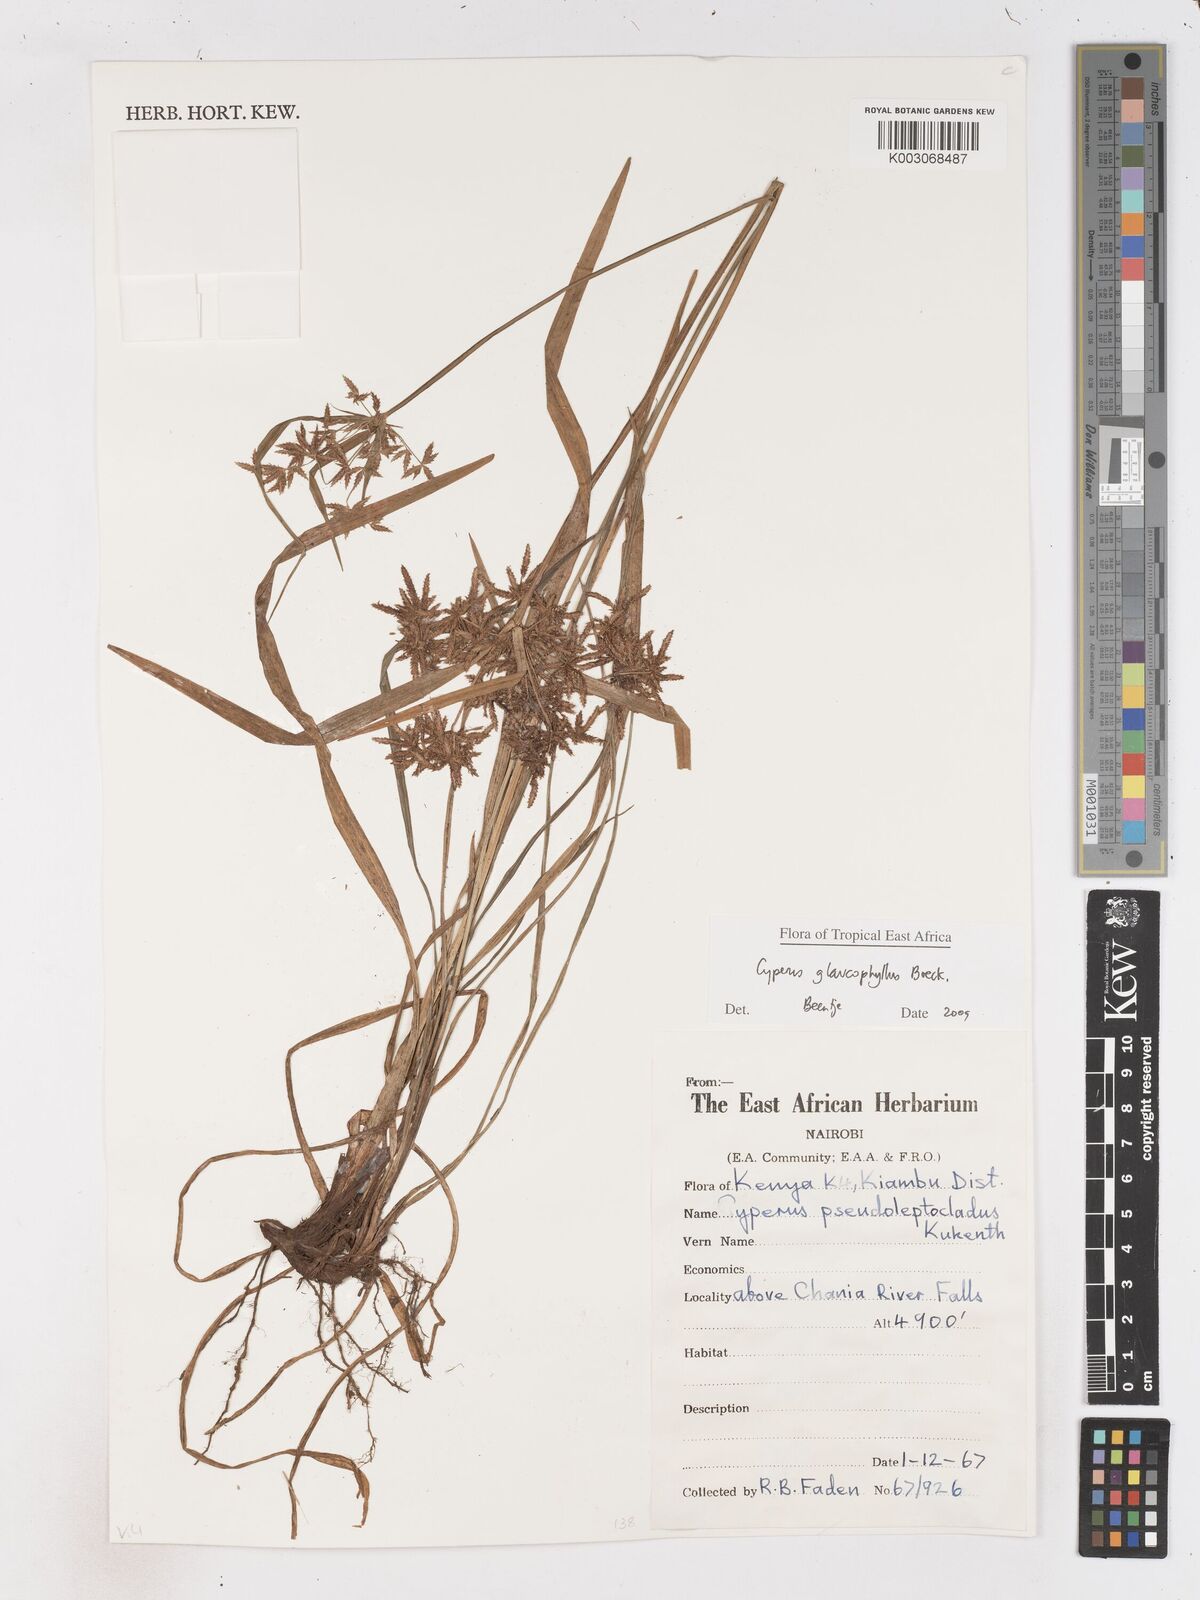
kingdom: Plantae
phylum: Tracheophyta
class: Liliopsida
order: Poales
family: Cyperaceae
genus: Cyperus
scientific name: Cyperus glaucophyllus
